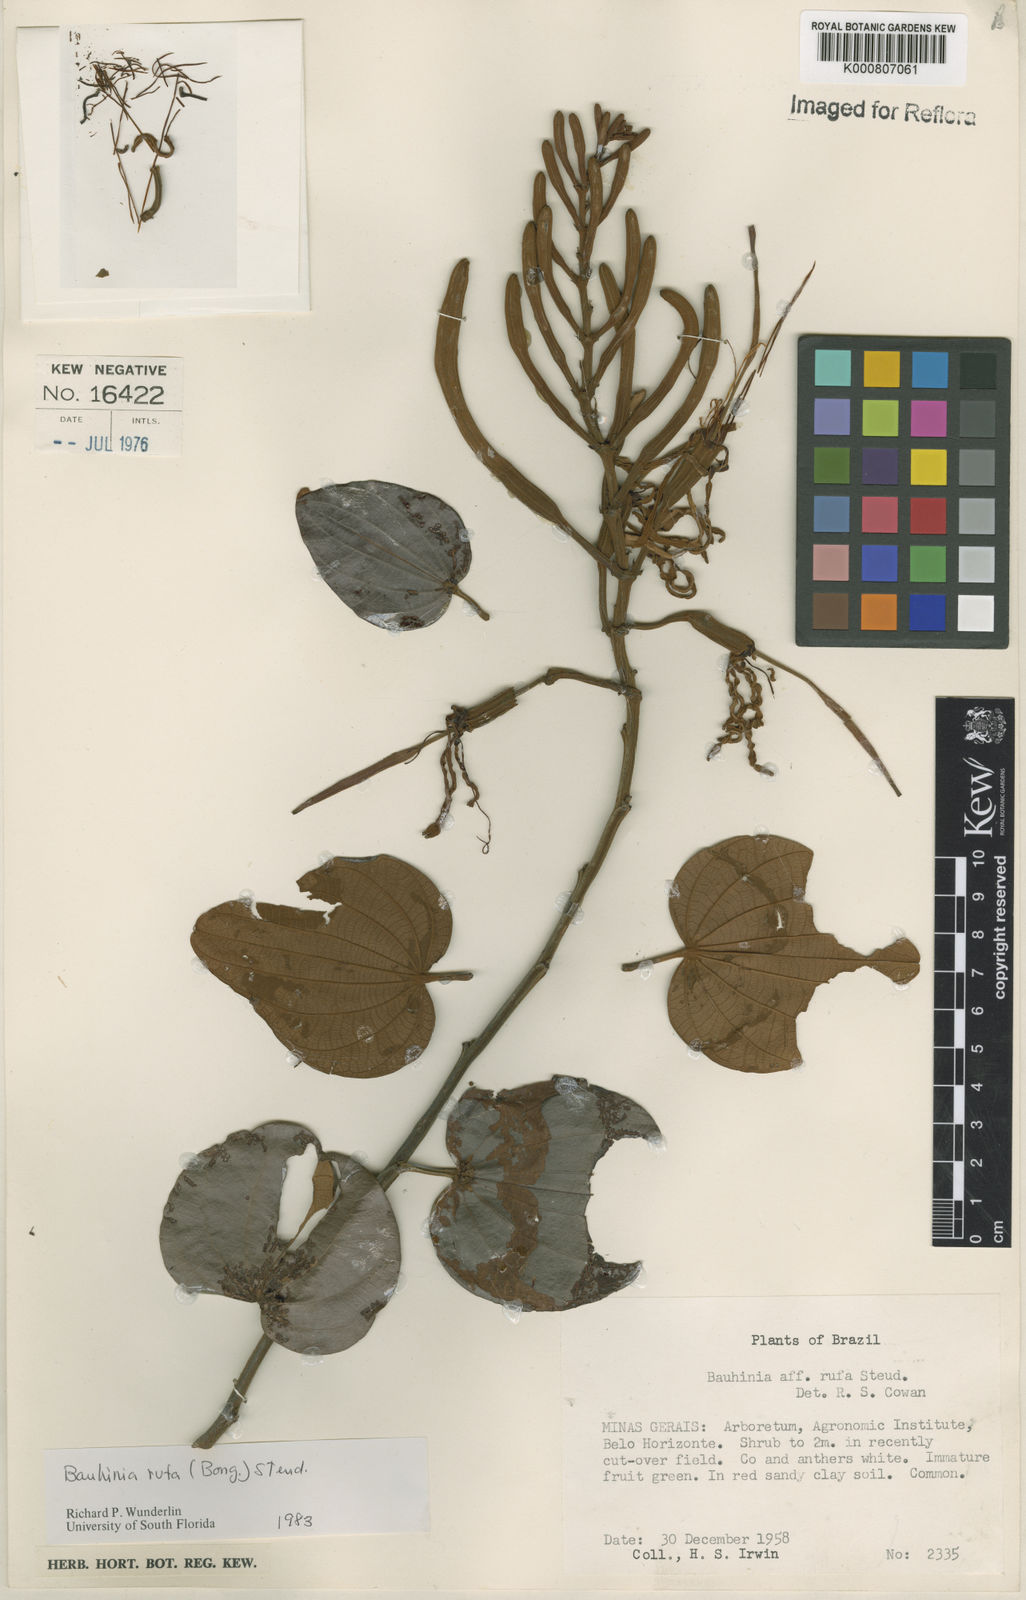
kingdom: Plantae
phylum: Tracheophyta
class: Magnoliopsida
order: Fabales
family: Fabaceae
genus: Bauhinia
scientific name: Bauhinia rufa
